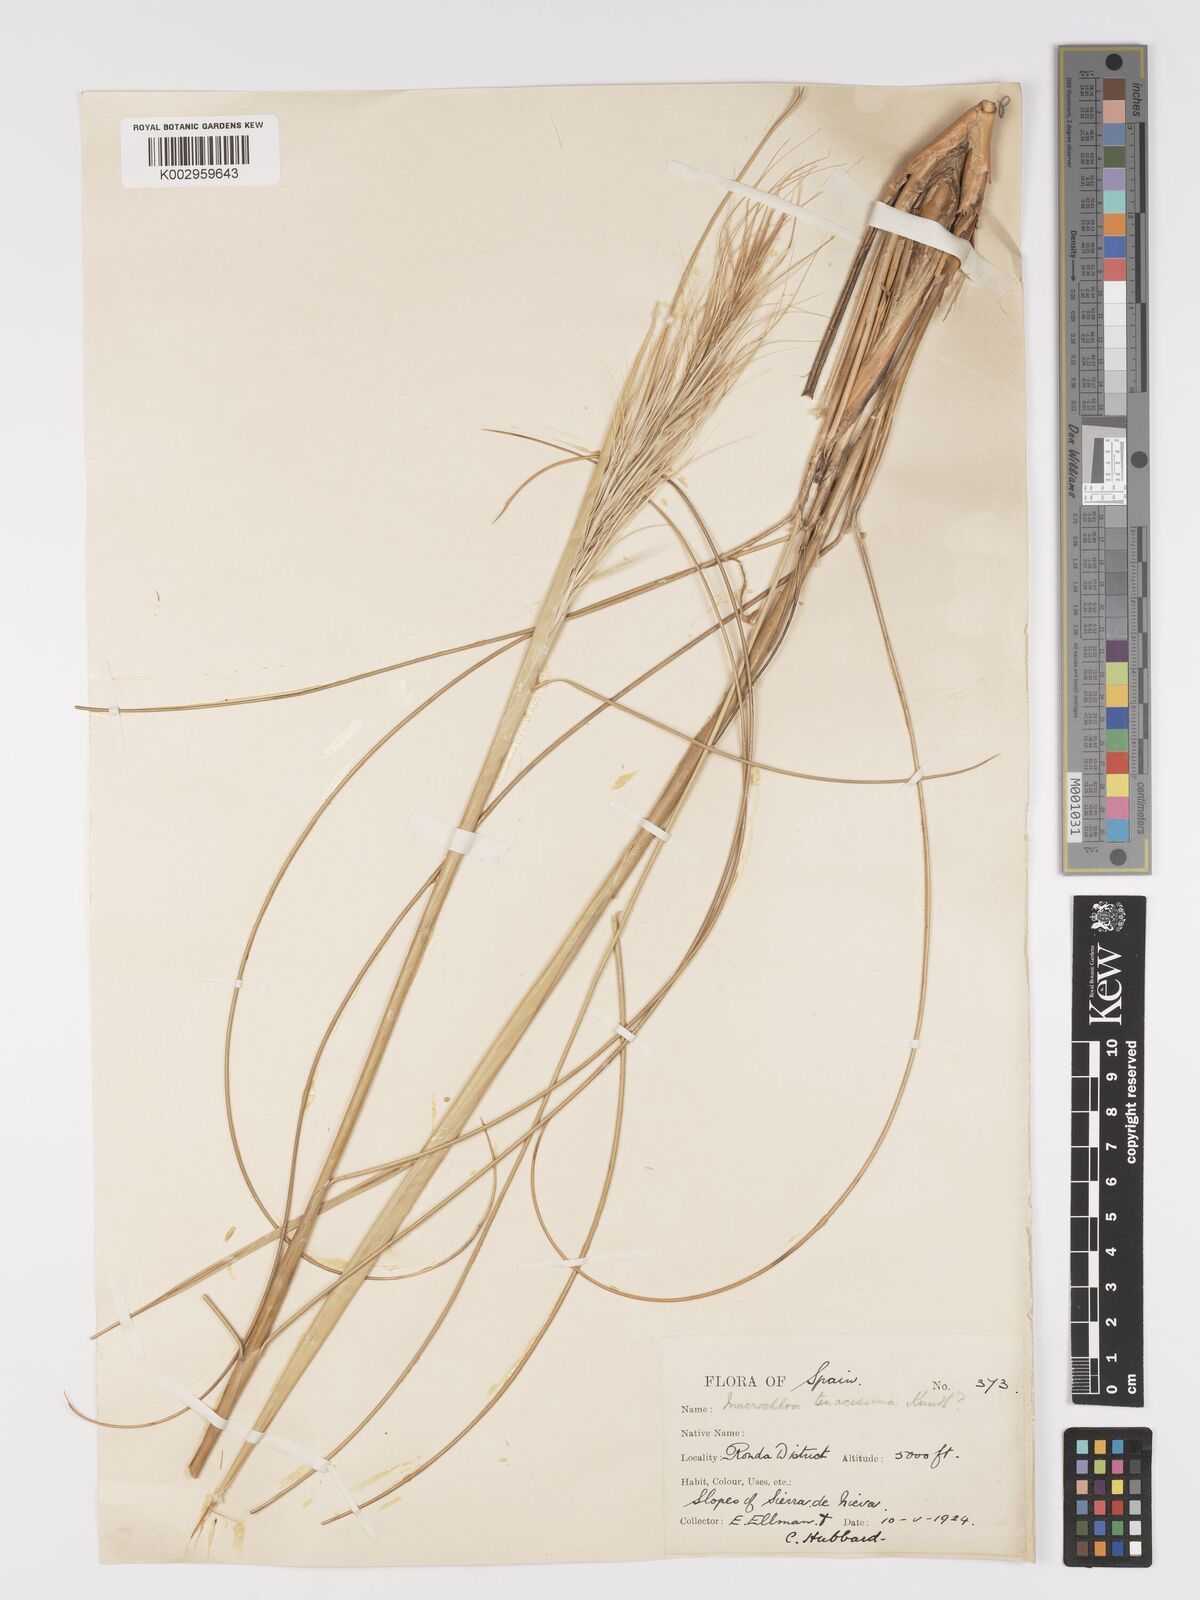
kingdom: Plantae
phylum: Tracheophyta
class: Liliopsida
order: Poales
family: Poaceae
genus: Macrochloa
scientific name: Macrochloa tenacissima
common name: Alfa grass
